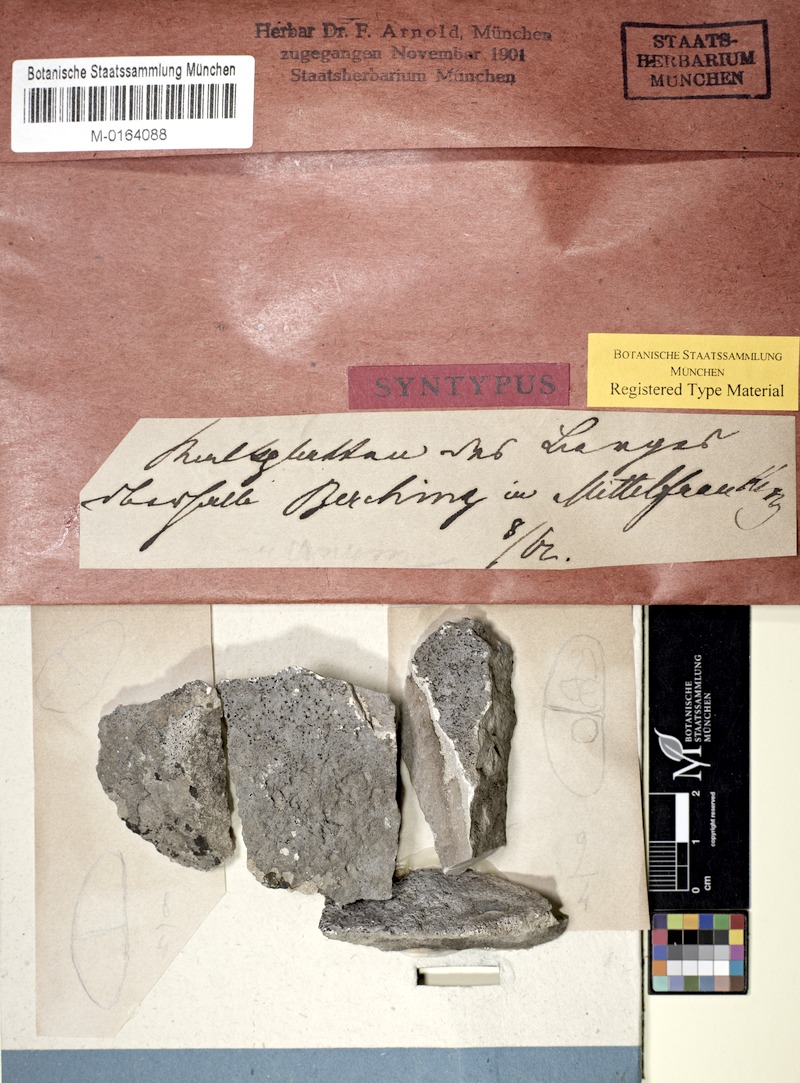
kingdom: Fungi
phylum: Ascomycota
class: Eurotiomycetes
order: Verrucariales
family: Verrucariaceae
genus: Thelidium
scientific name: Thelidium decipiens
